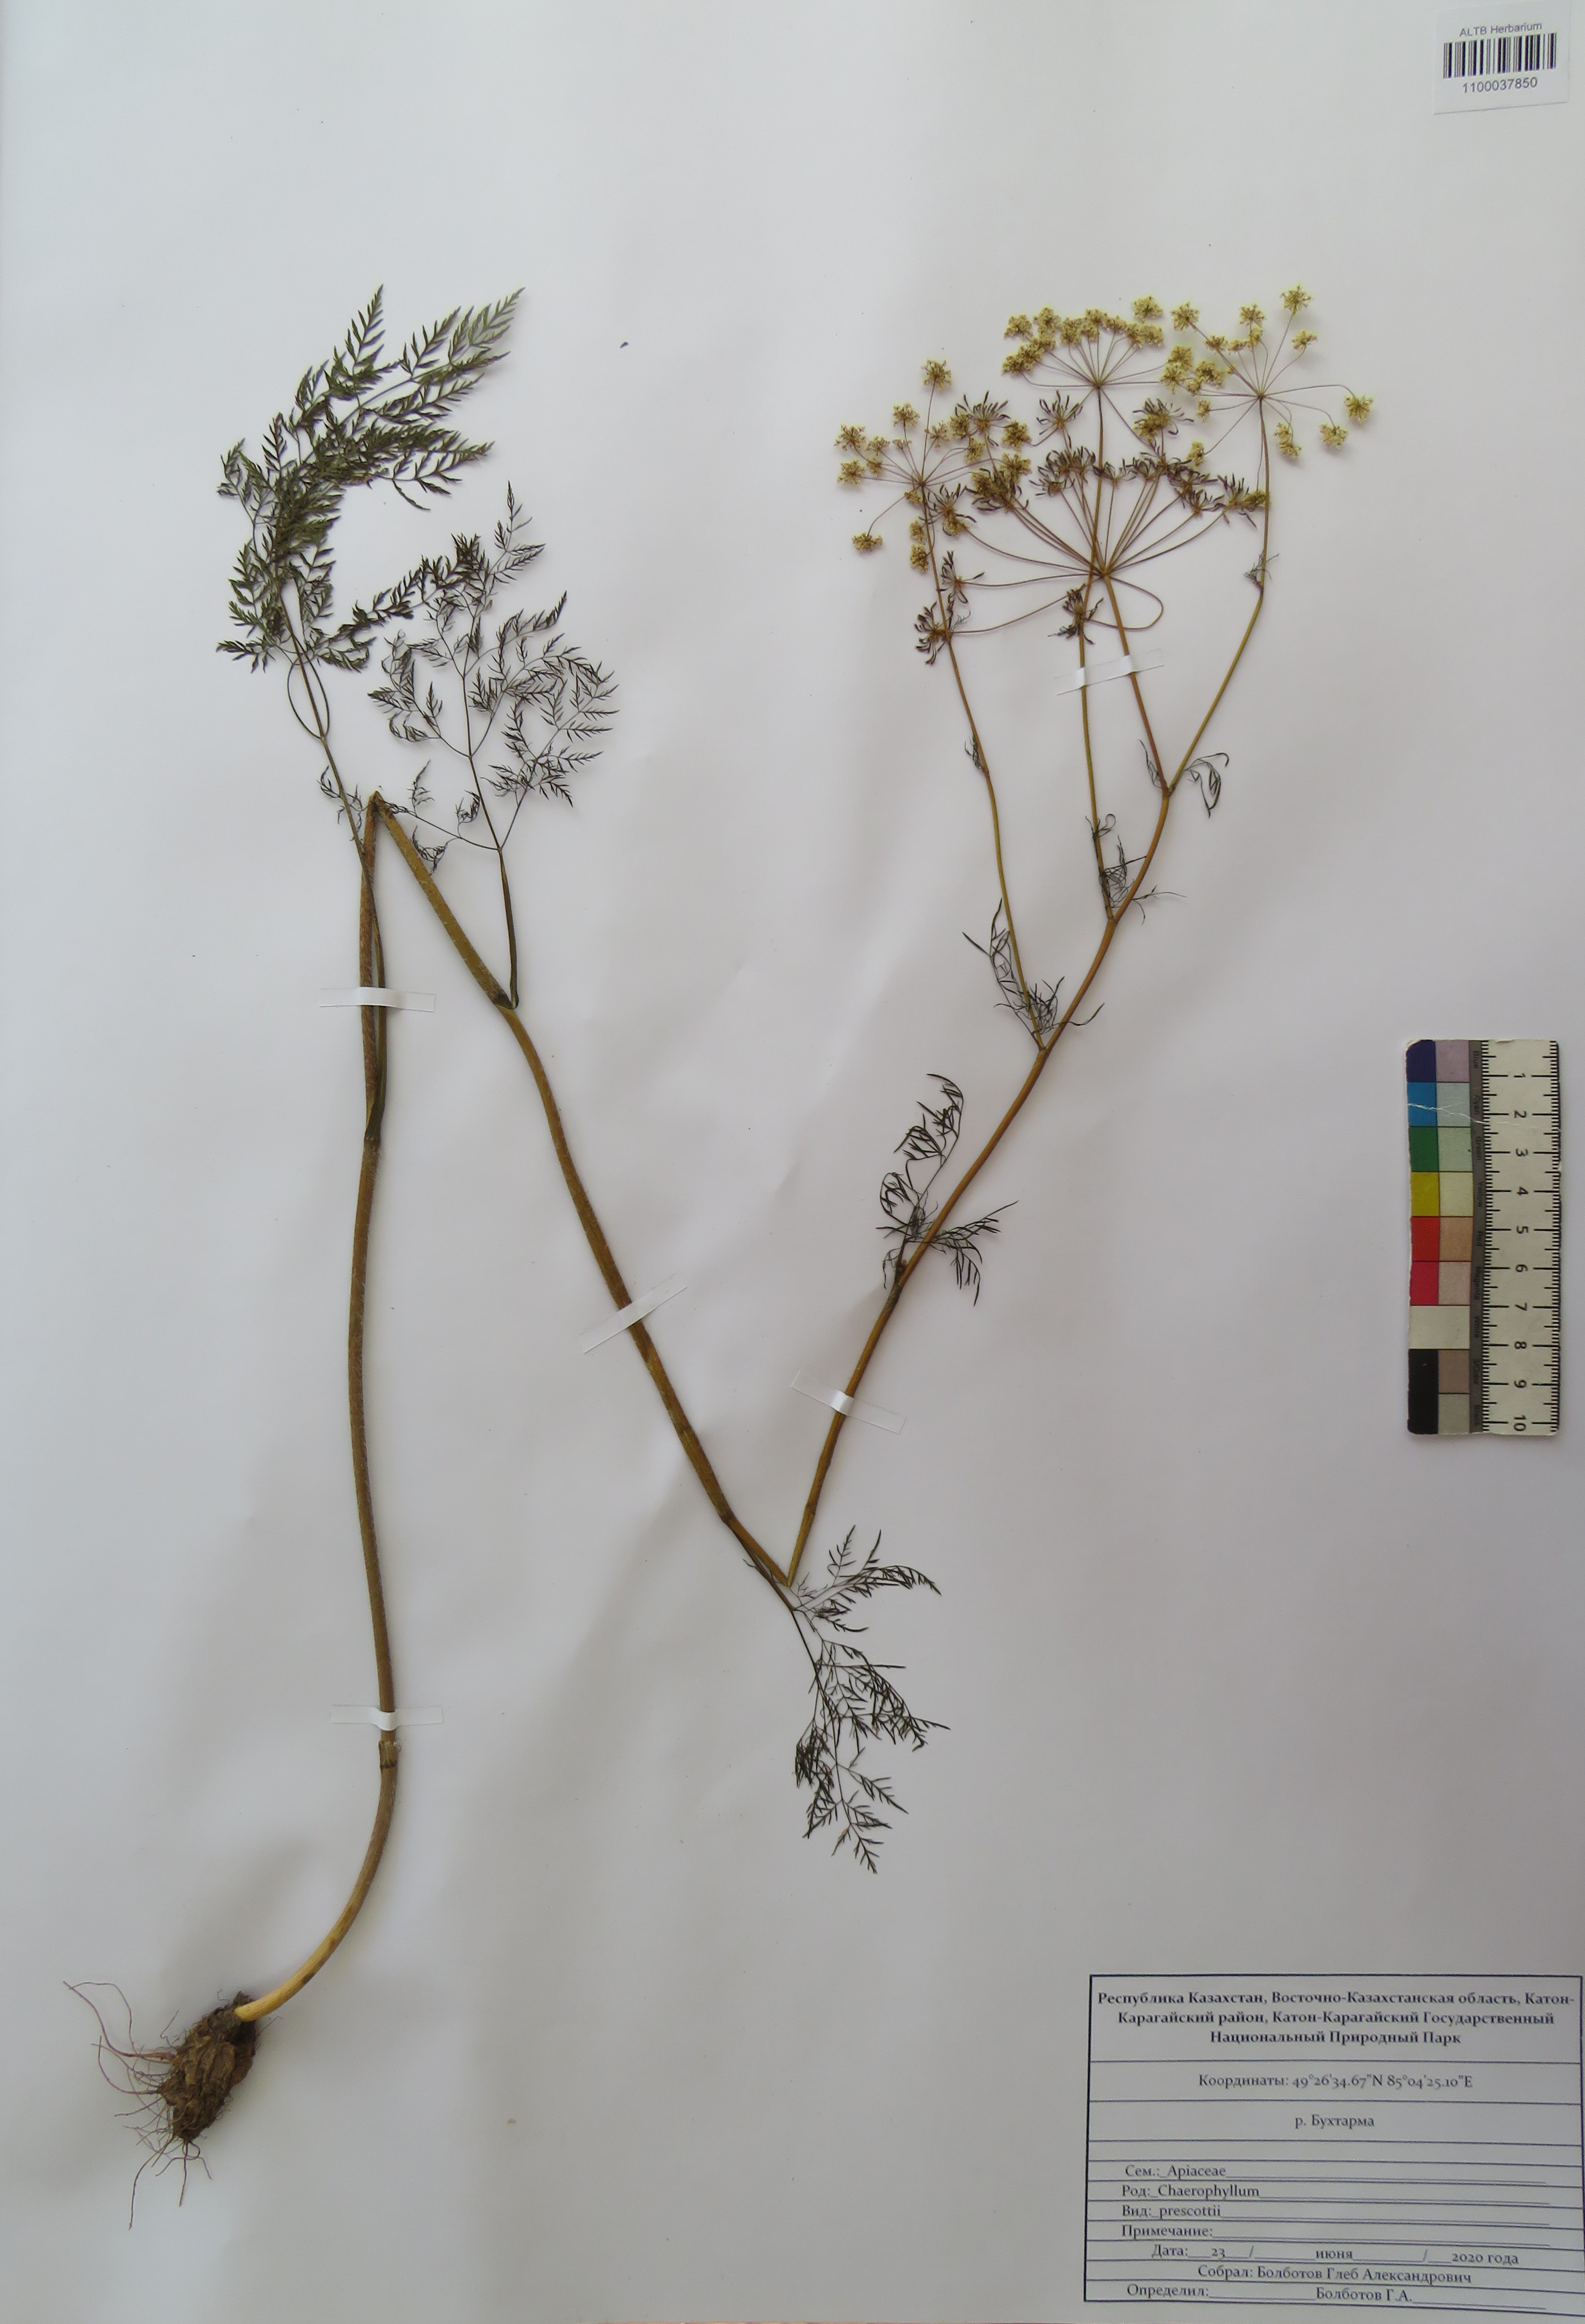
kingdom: Plantae
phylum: Tracheophyta
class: Magnoliopsida
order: Apiales
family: Apiaceae
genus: Chaerophyllum
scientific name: Chaerophyllum prescottii
